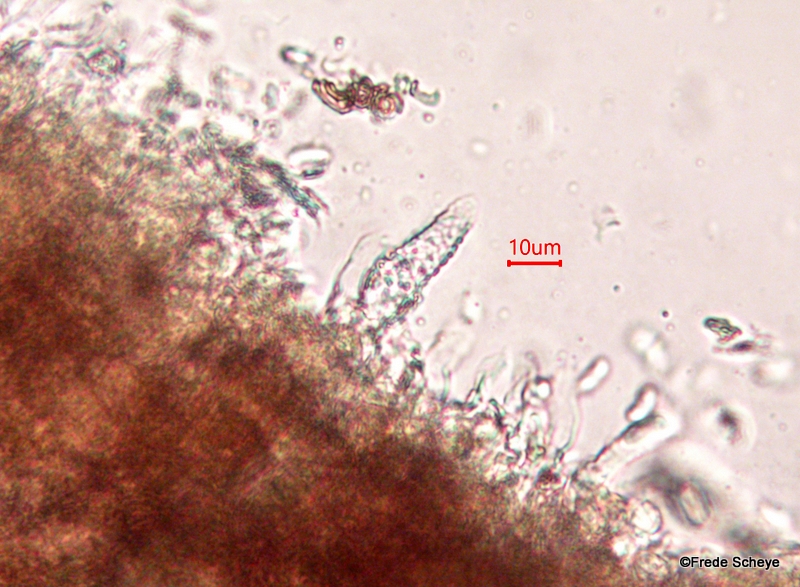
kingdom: Fungi
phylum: Basidiomycota
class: Agaricomycetes
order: Russulales
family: Peniophoraceae
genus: Peniophora
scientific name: Peniophora quercina
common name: ege-voksskind
